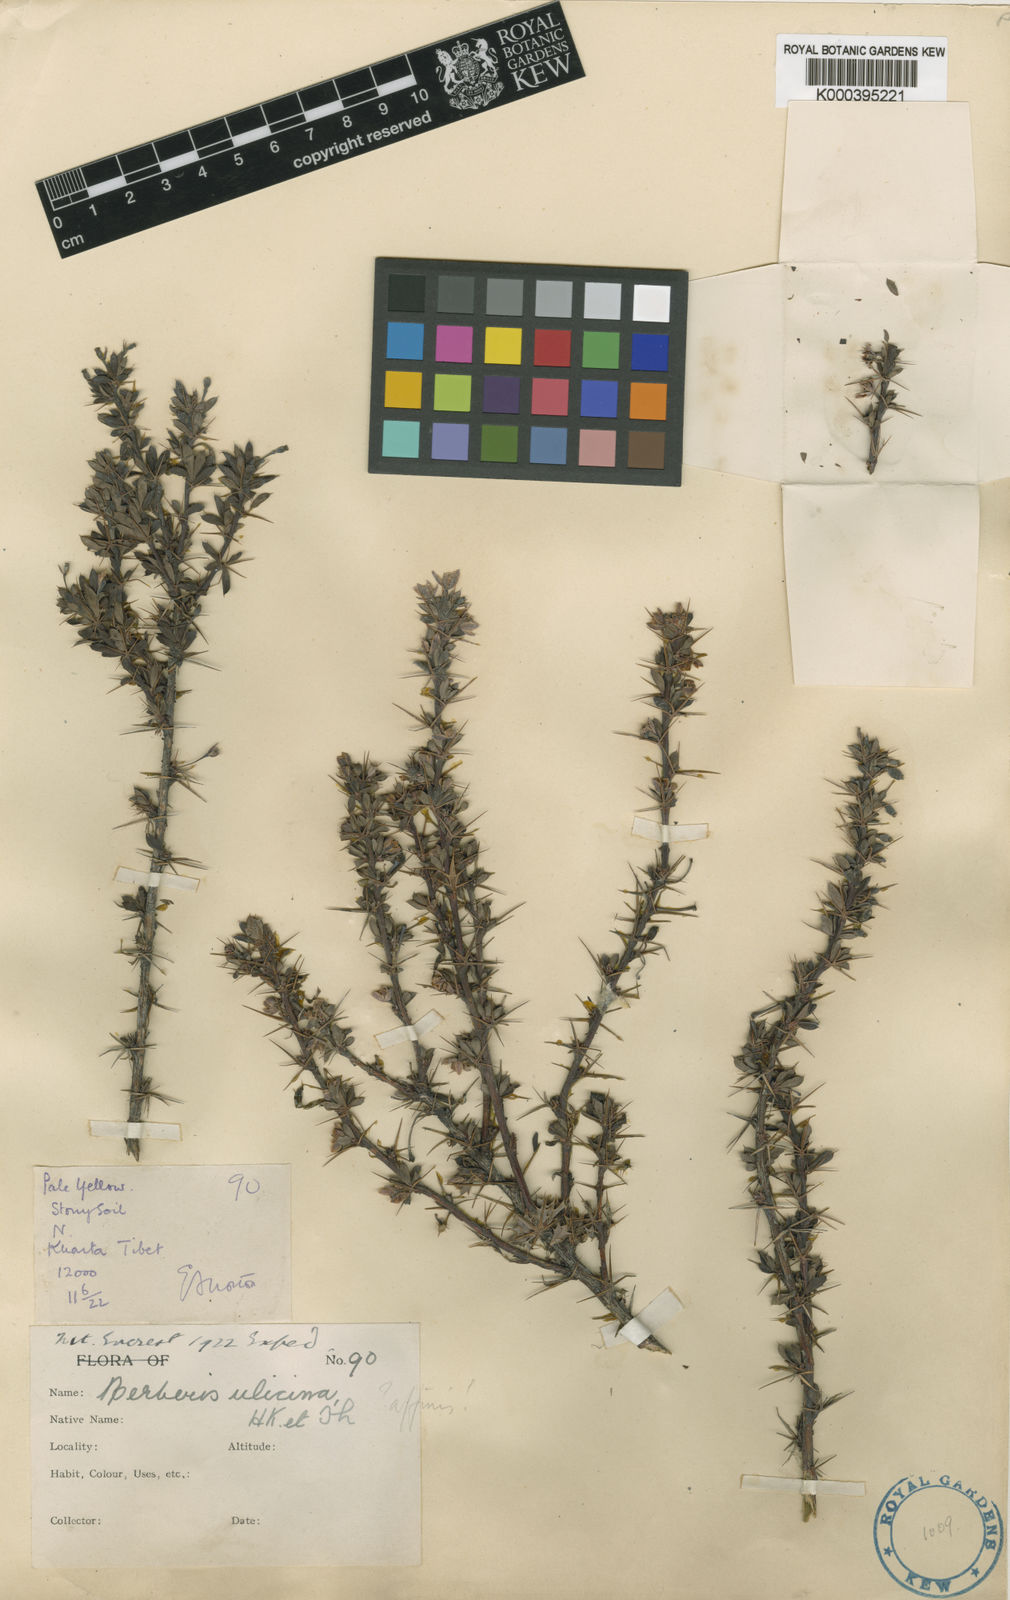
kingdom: Plantae
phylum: Tracheophyta
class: Magnoliopsida
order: Ranunculales
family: Berberidaceae
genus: Berberis
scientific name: Berberis everestiana
